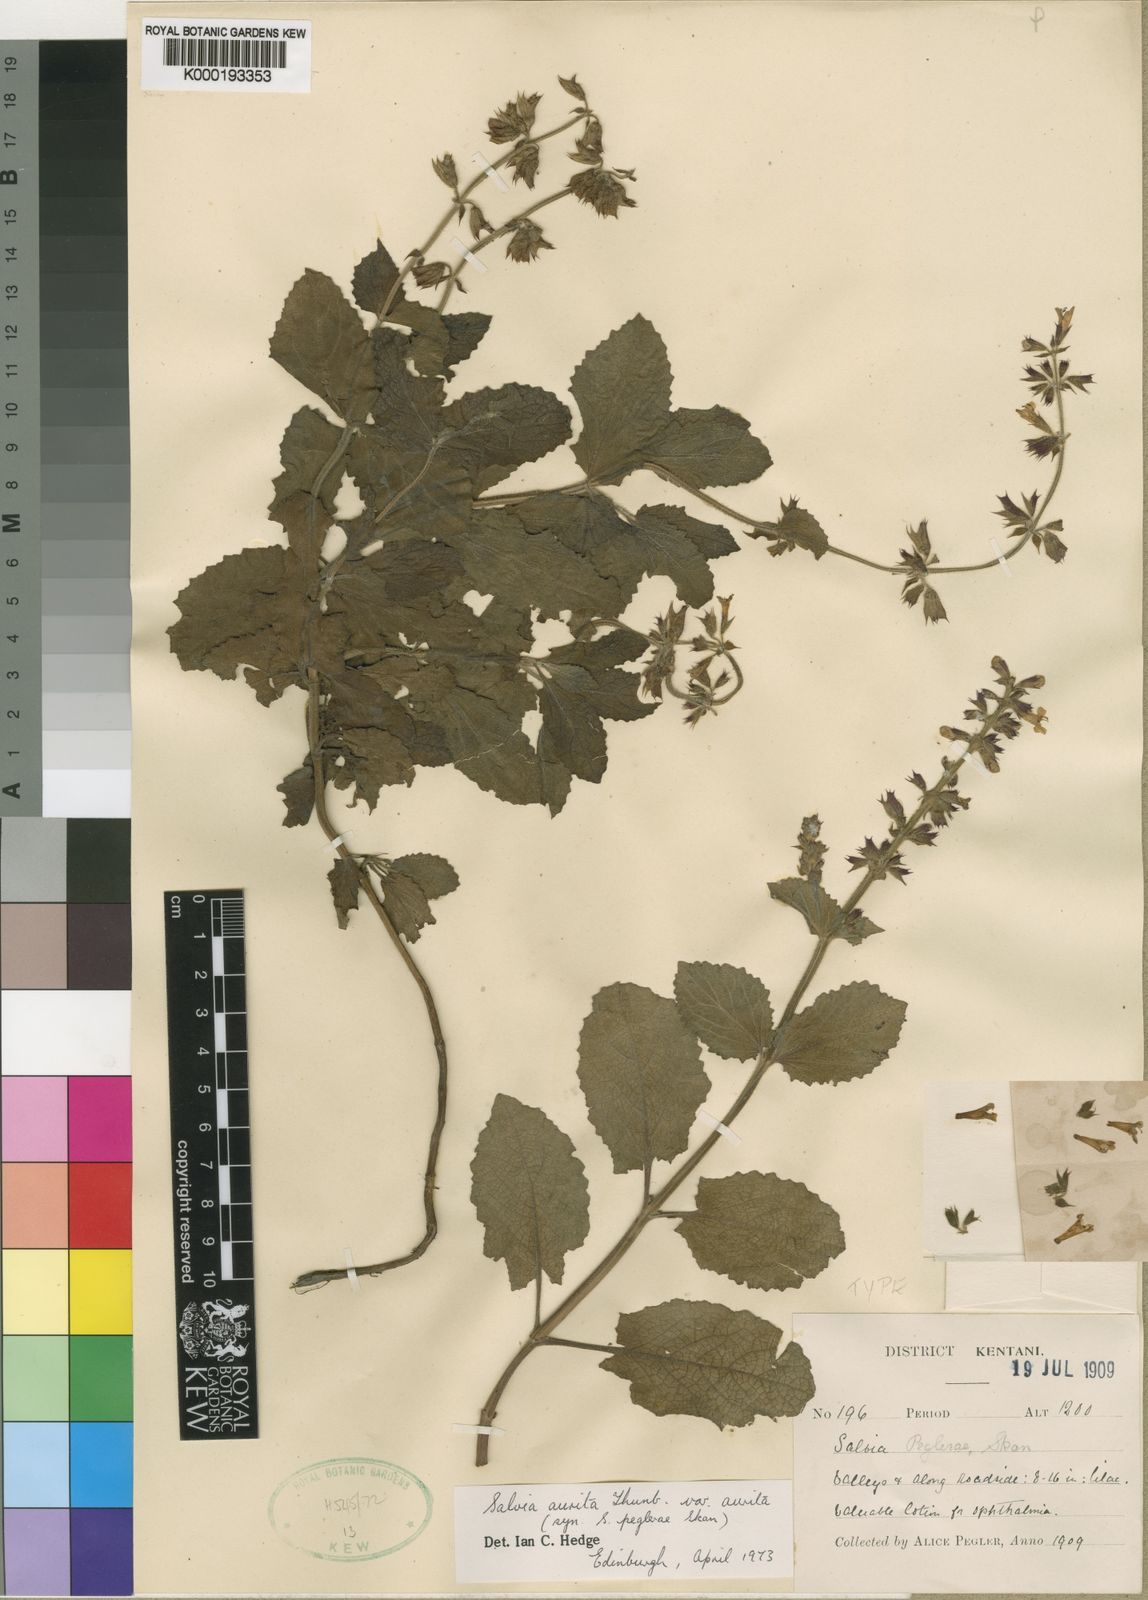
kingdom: Plantae
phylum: Tracheophyta
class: Magnoliopsida
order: Lamiales
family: Lamiaceae
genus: Salvia
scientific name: Salvia
